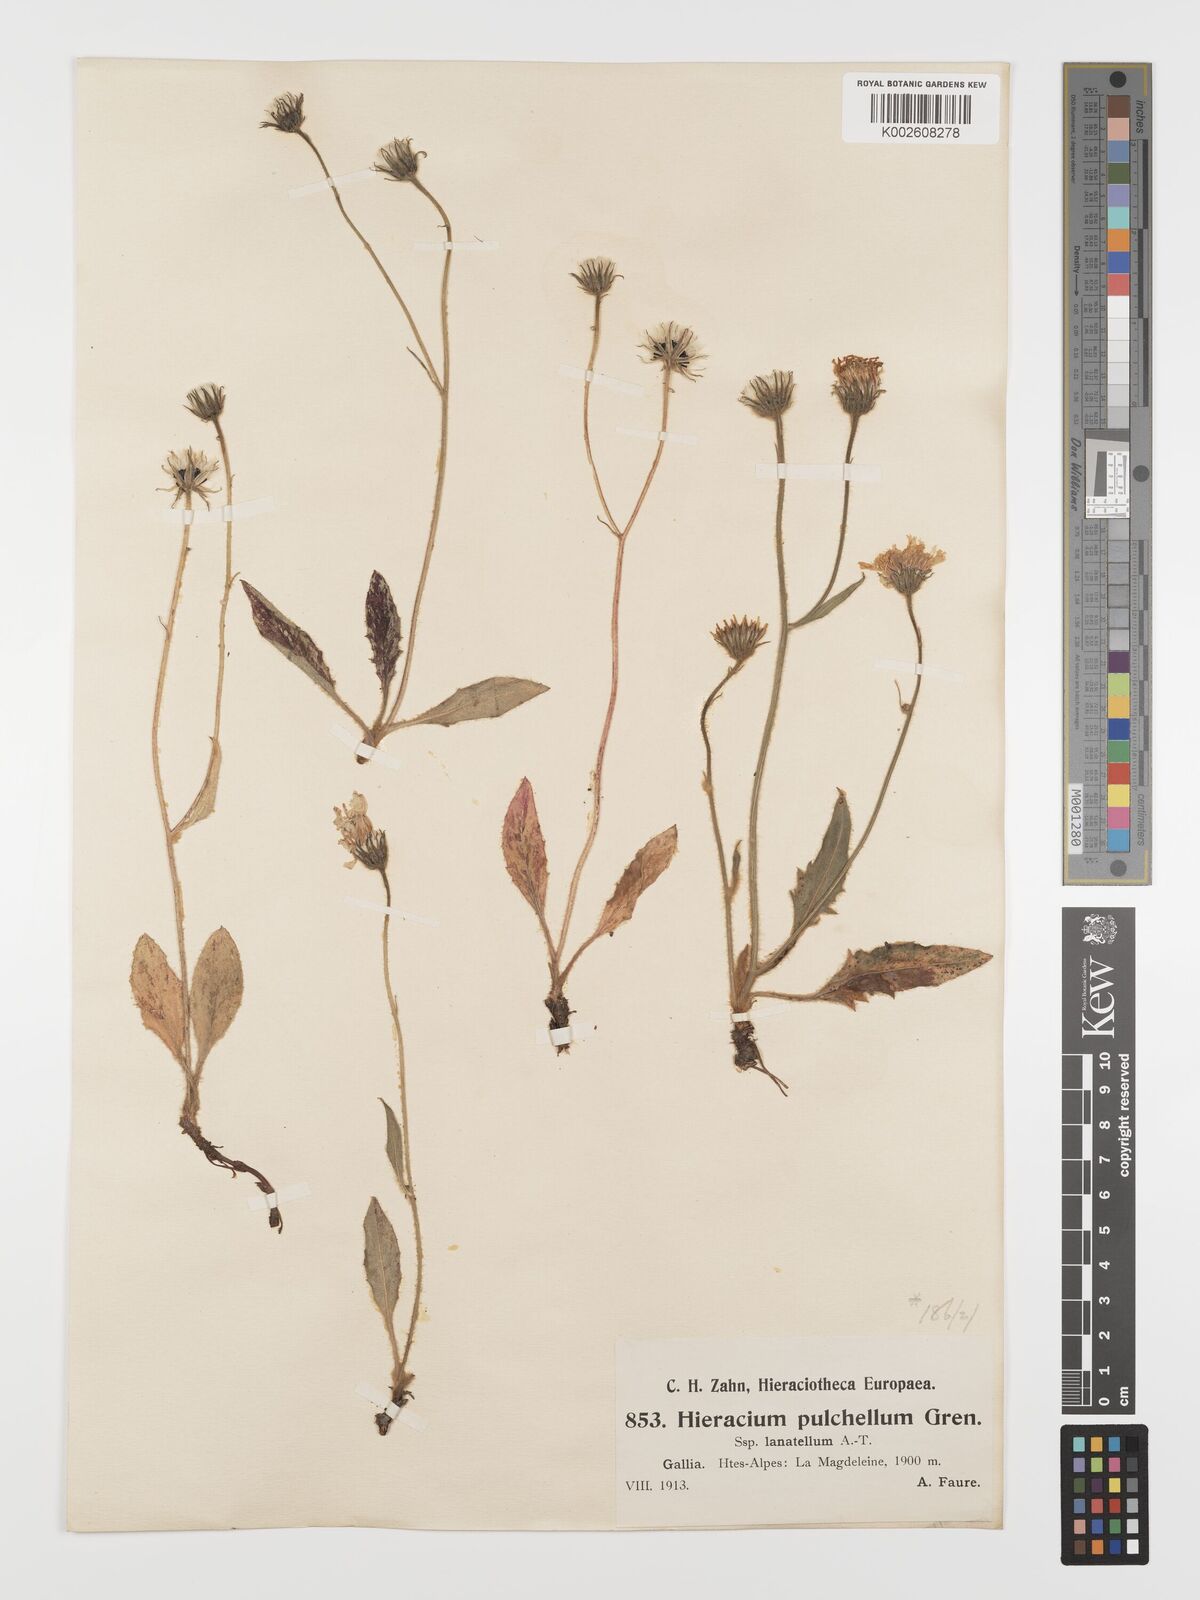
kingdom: Plantae
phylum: Tracheophyta
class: Magnoliopsida
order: Asterales
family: Asteraceae
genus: Hieracium
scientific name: Hieracium pulchellum
